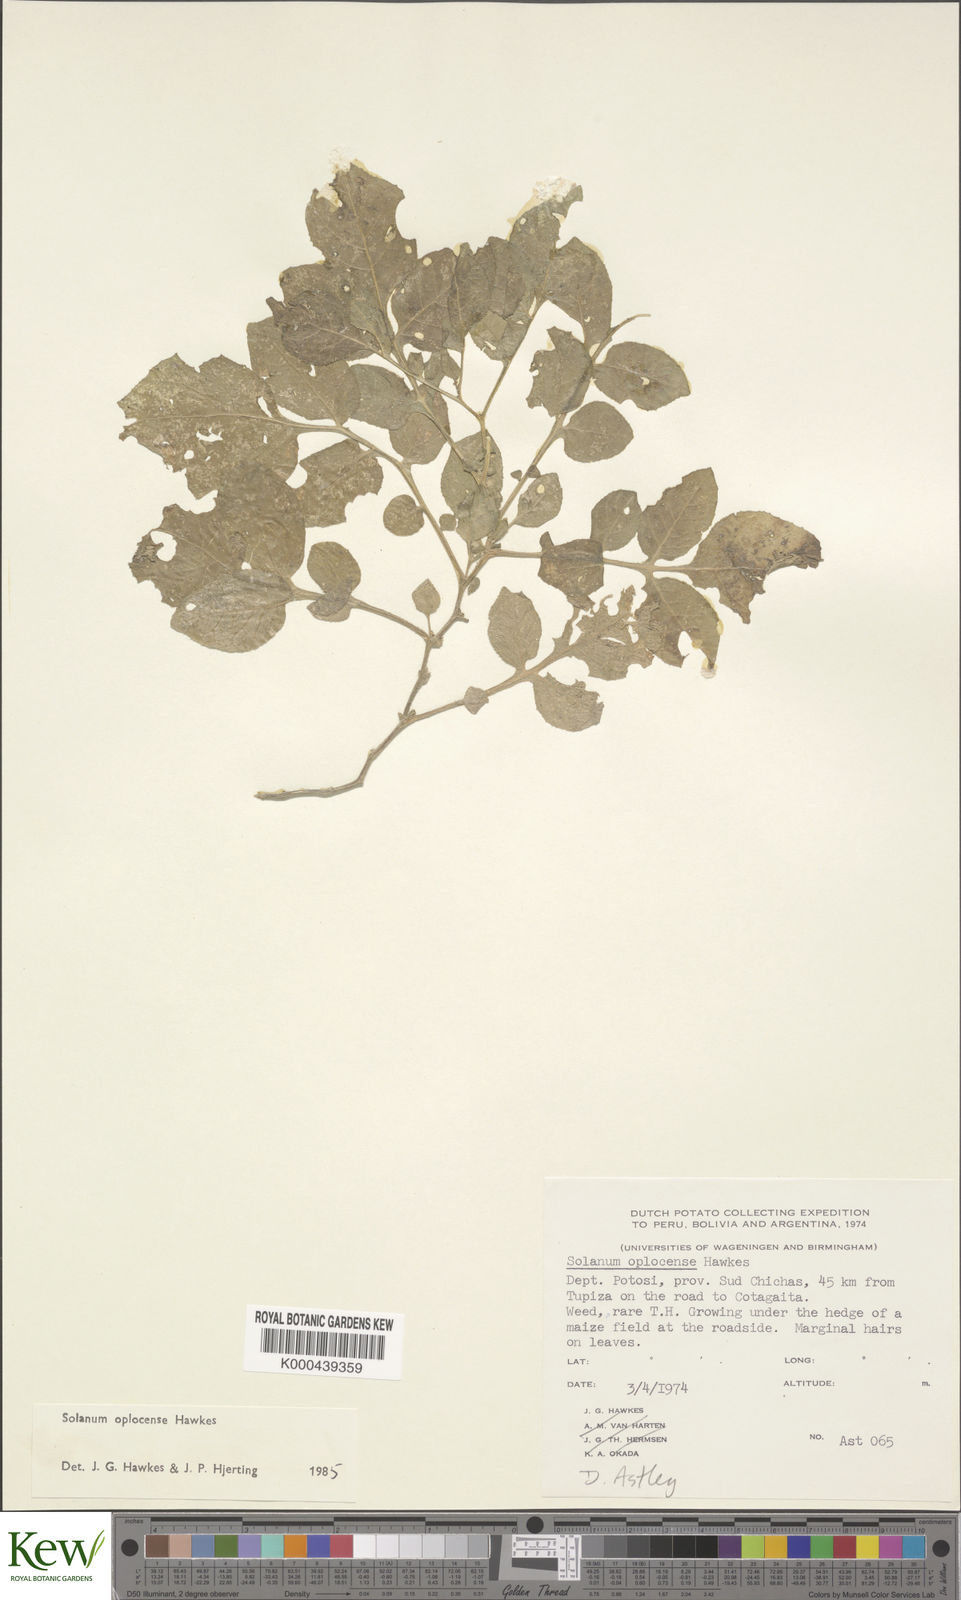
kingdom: Plantae
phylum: Tracheophyta
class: Magnoliopsida
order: Solanales
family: Solanaceae
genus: Solanum
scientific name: Solanum brevicaule
